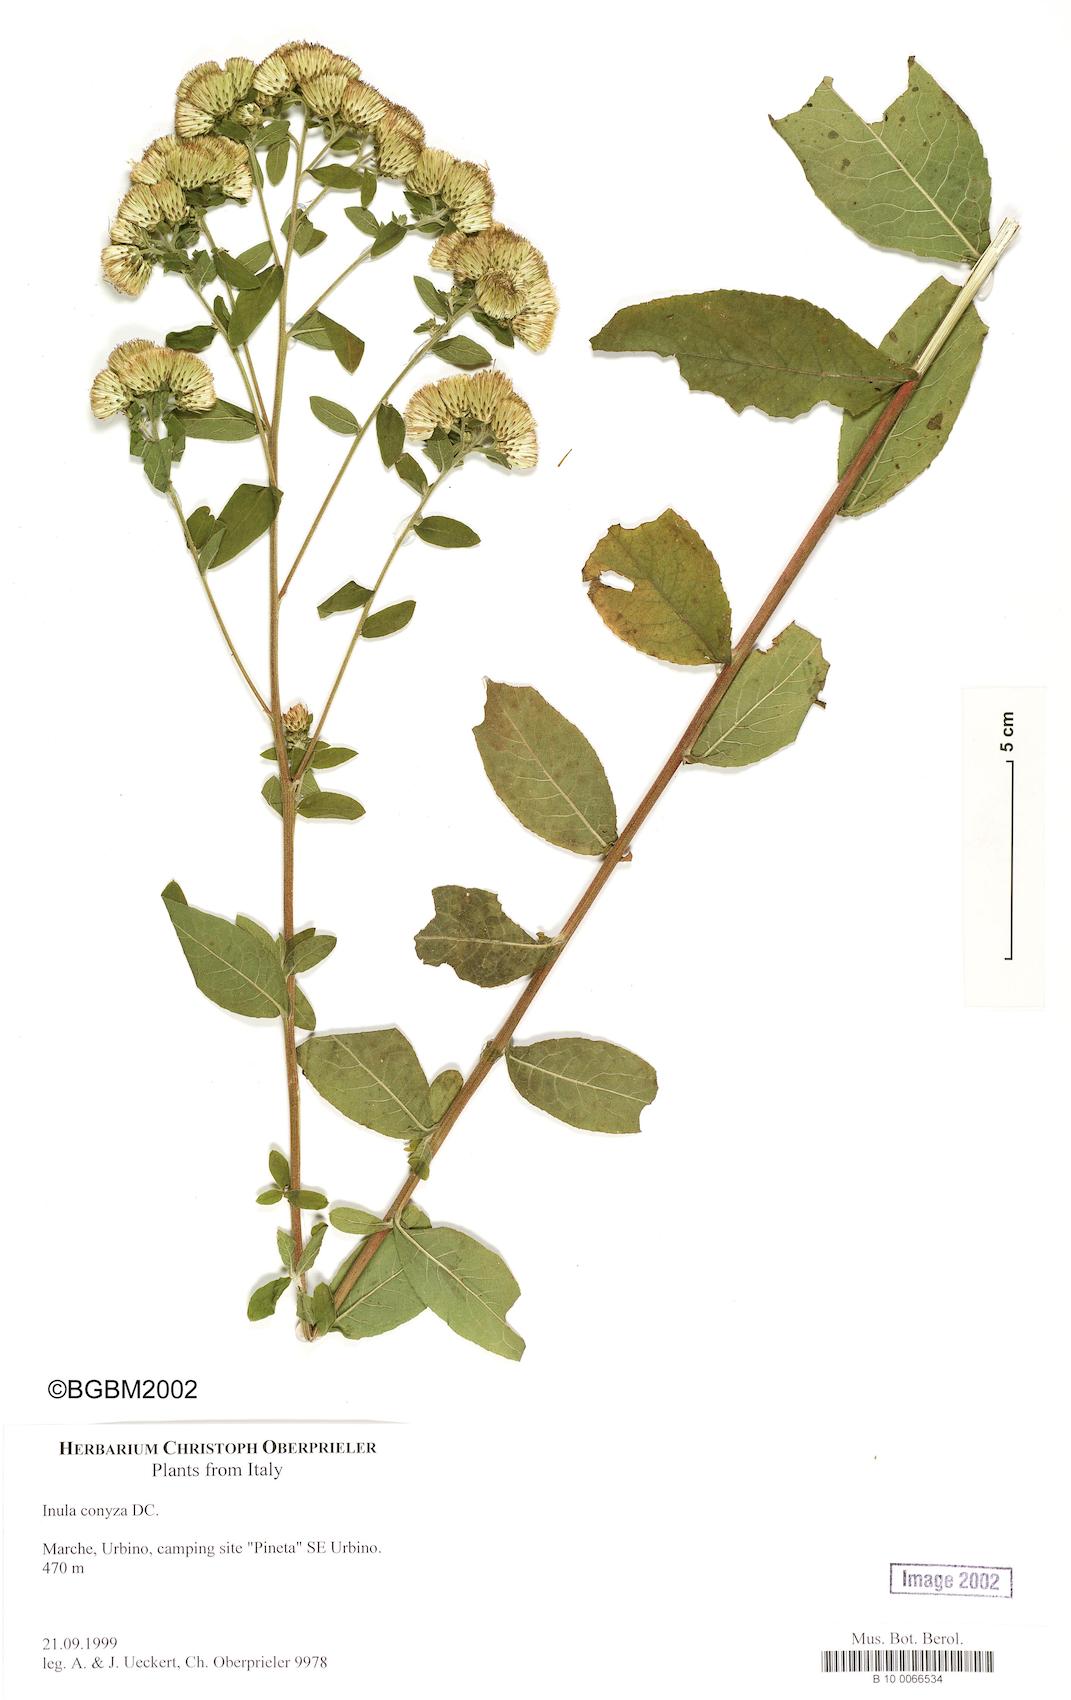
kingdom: Plantae
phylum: Tracheophyta
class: Magnoliopsida
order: Asterales
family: Asteraceae
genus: Pentanema
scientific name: Pentanema squarrosum
